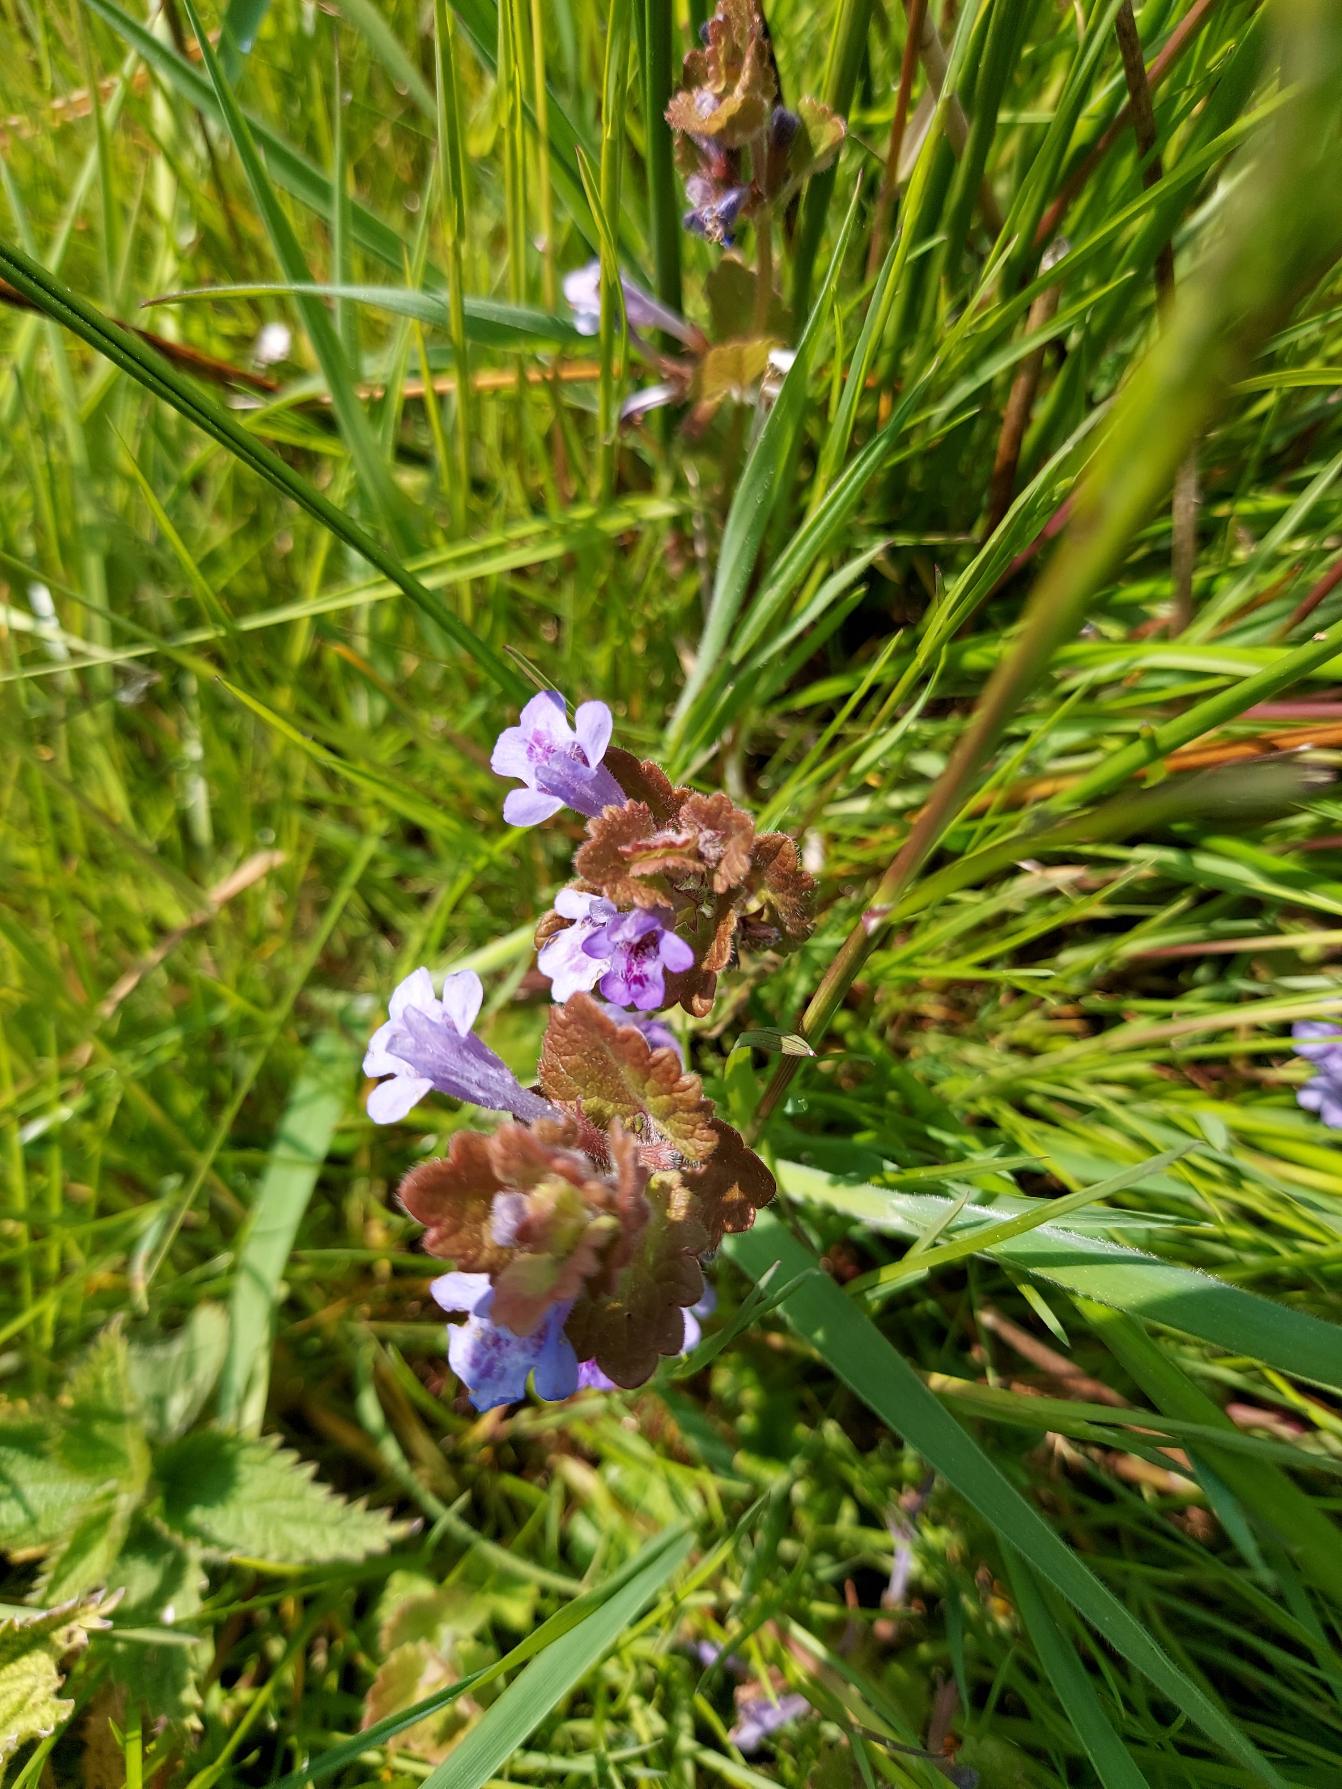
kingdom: Plantae
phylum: Tracheophyta
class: Magnoliopsida
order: Lamiales
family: Lamiaceae
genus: Glechoma
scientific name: Glechoma hederacea
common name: Korsknap
